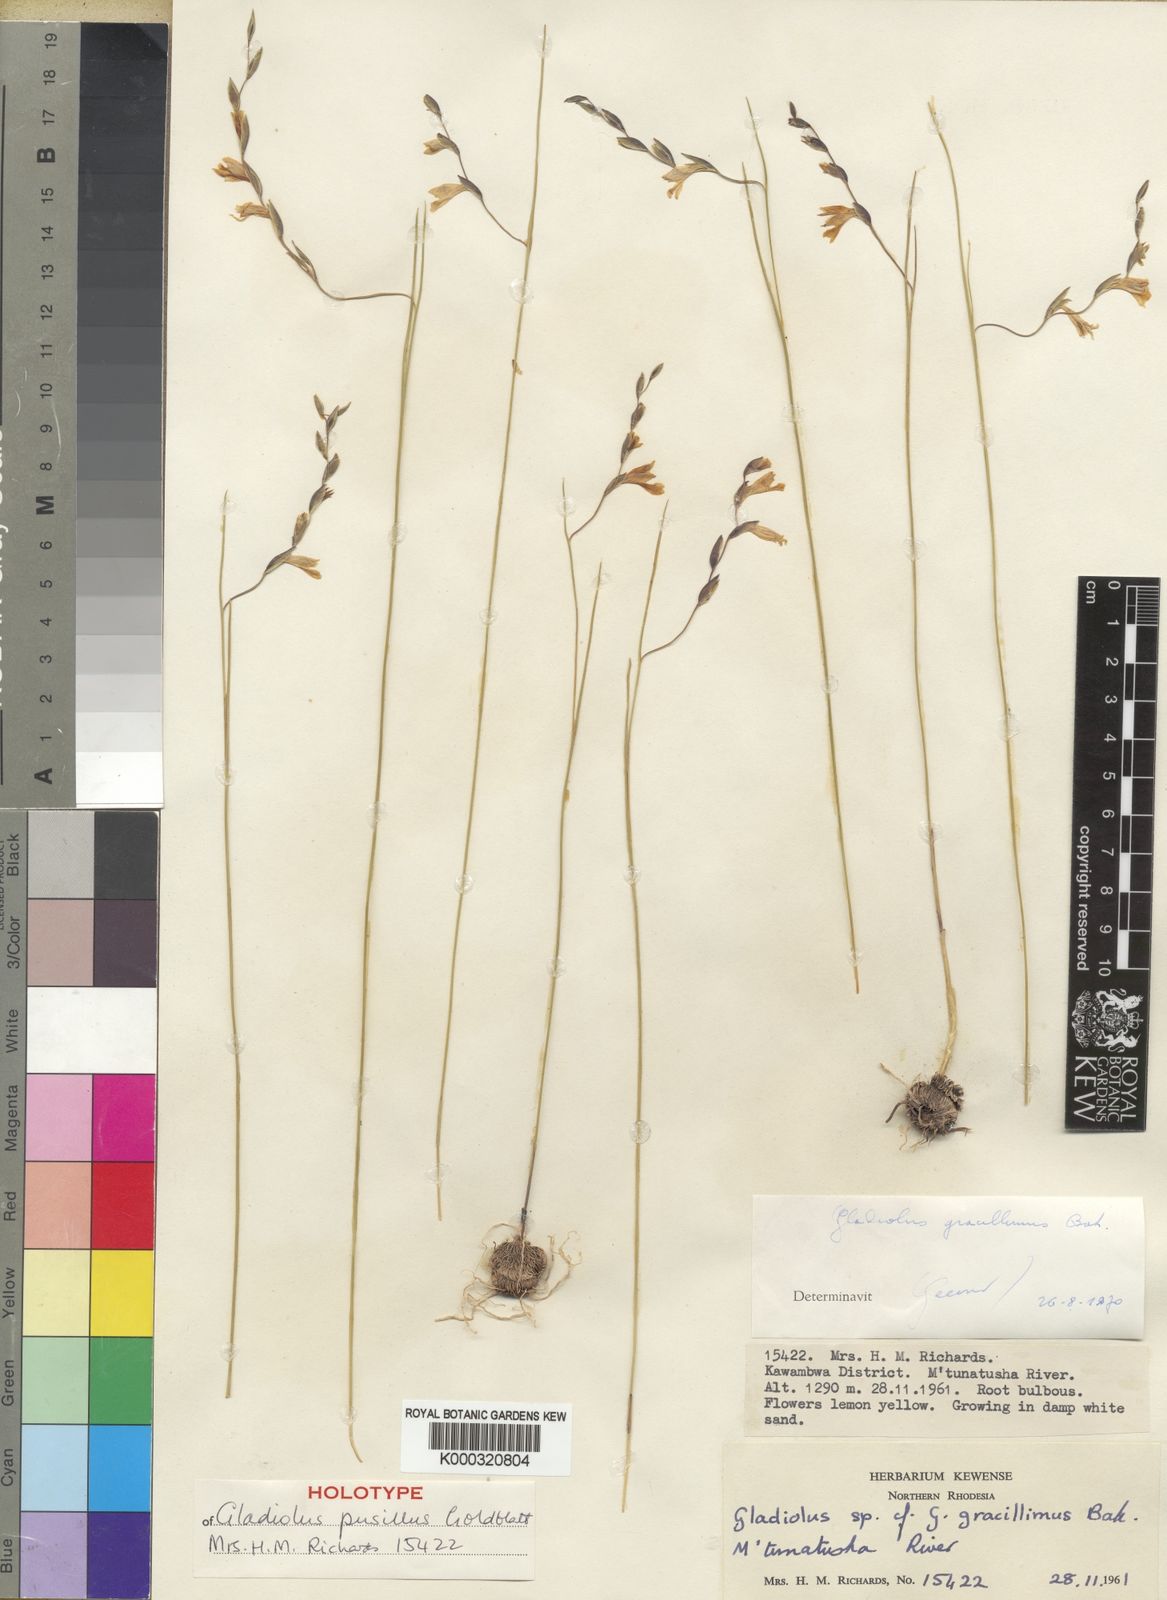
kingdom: Plantae
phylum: Tracheophyta
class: Liliopsida
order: Asparagales
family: Iridaceae
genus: Gladiolus
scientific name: Gladiolus pusillus
